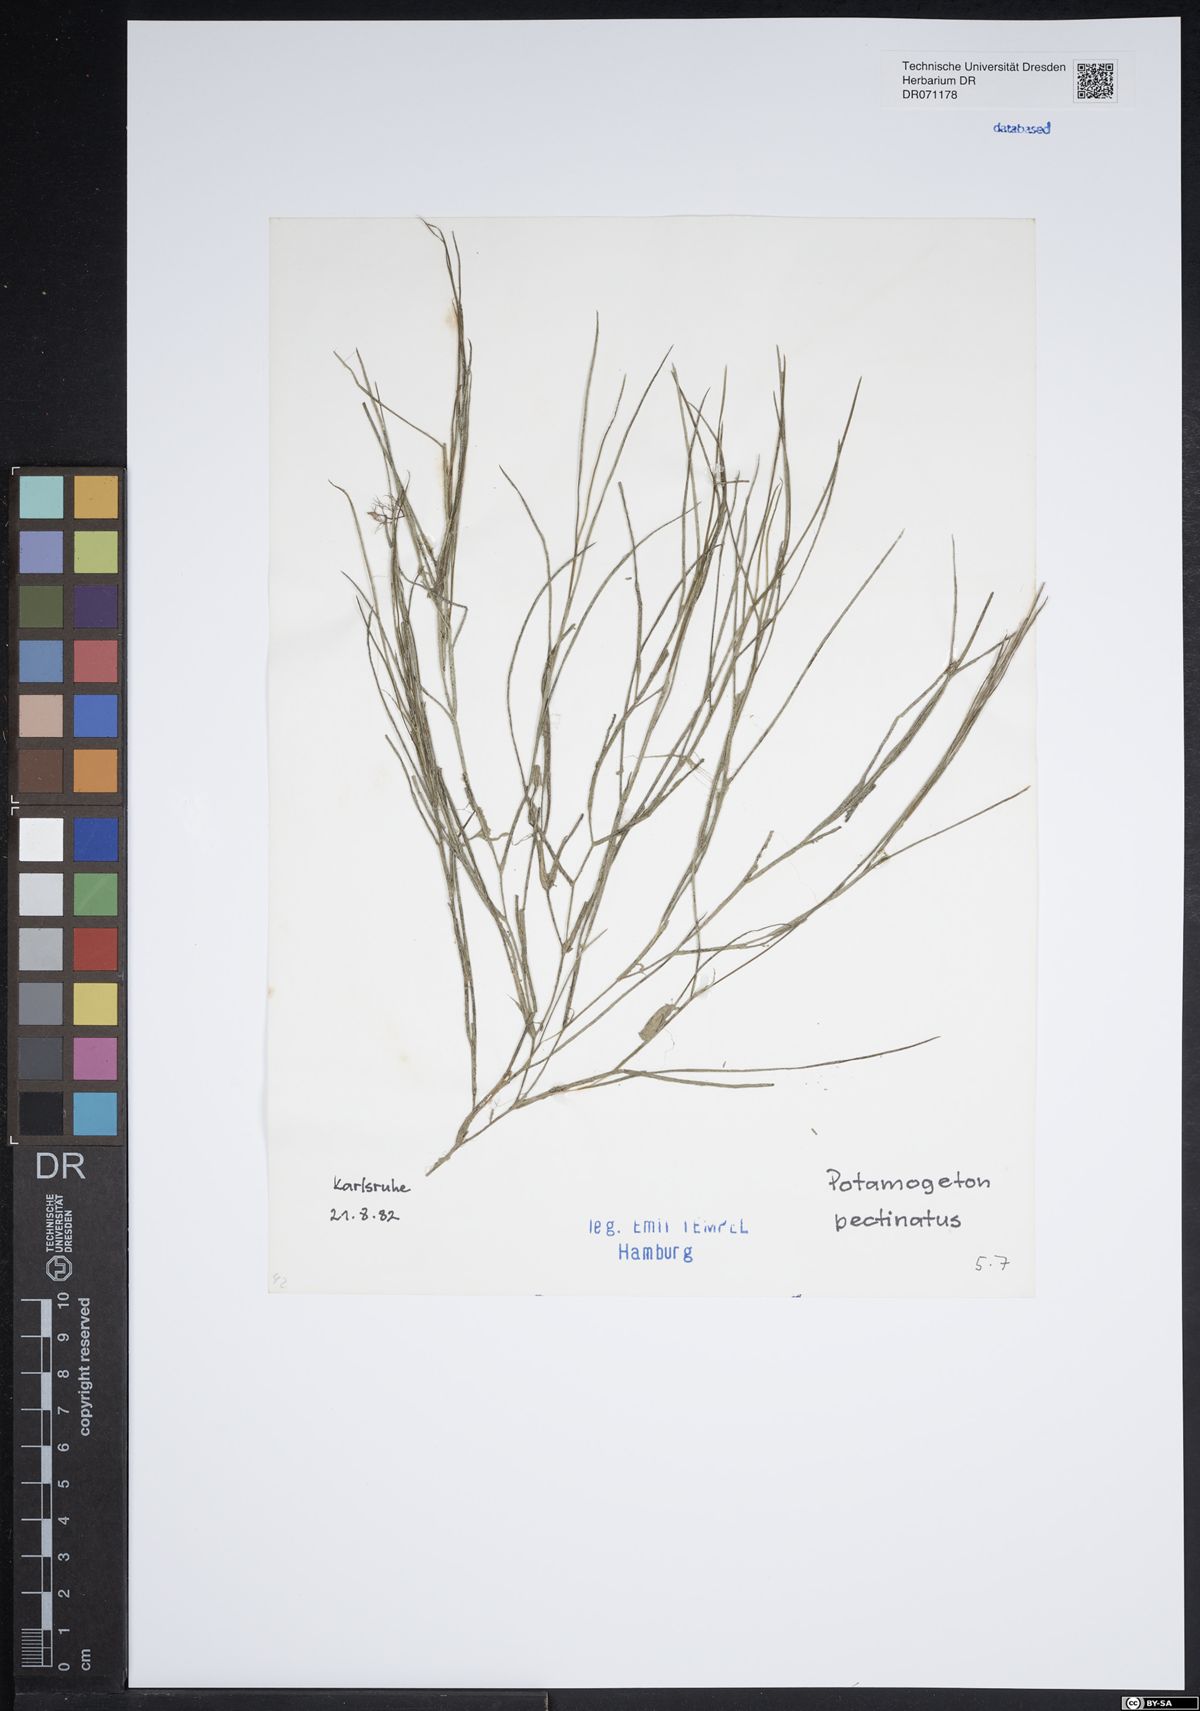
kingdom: Plantae
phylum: Tracheophyta
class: Liliopsida
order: Alismatales
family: Potamogetonaceae
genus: Stuckenia
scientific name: Stuckenia pectinata
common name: Sago pondweed
